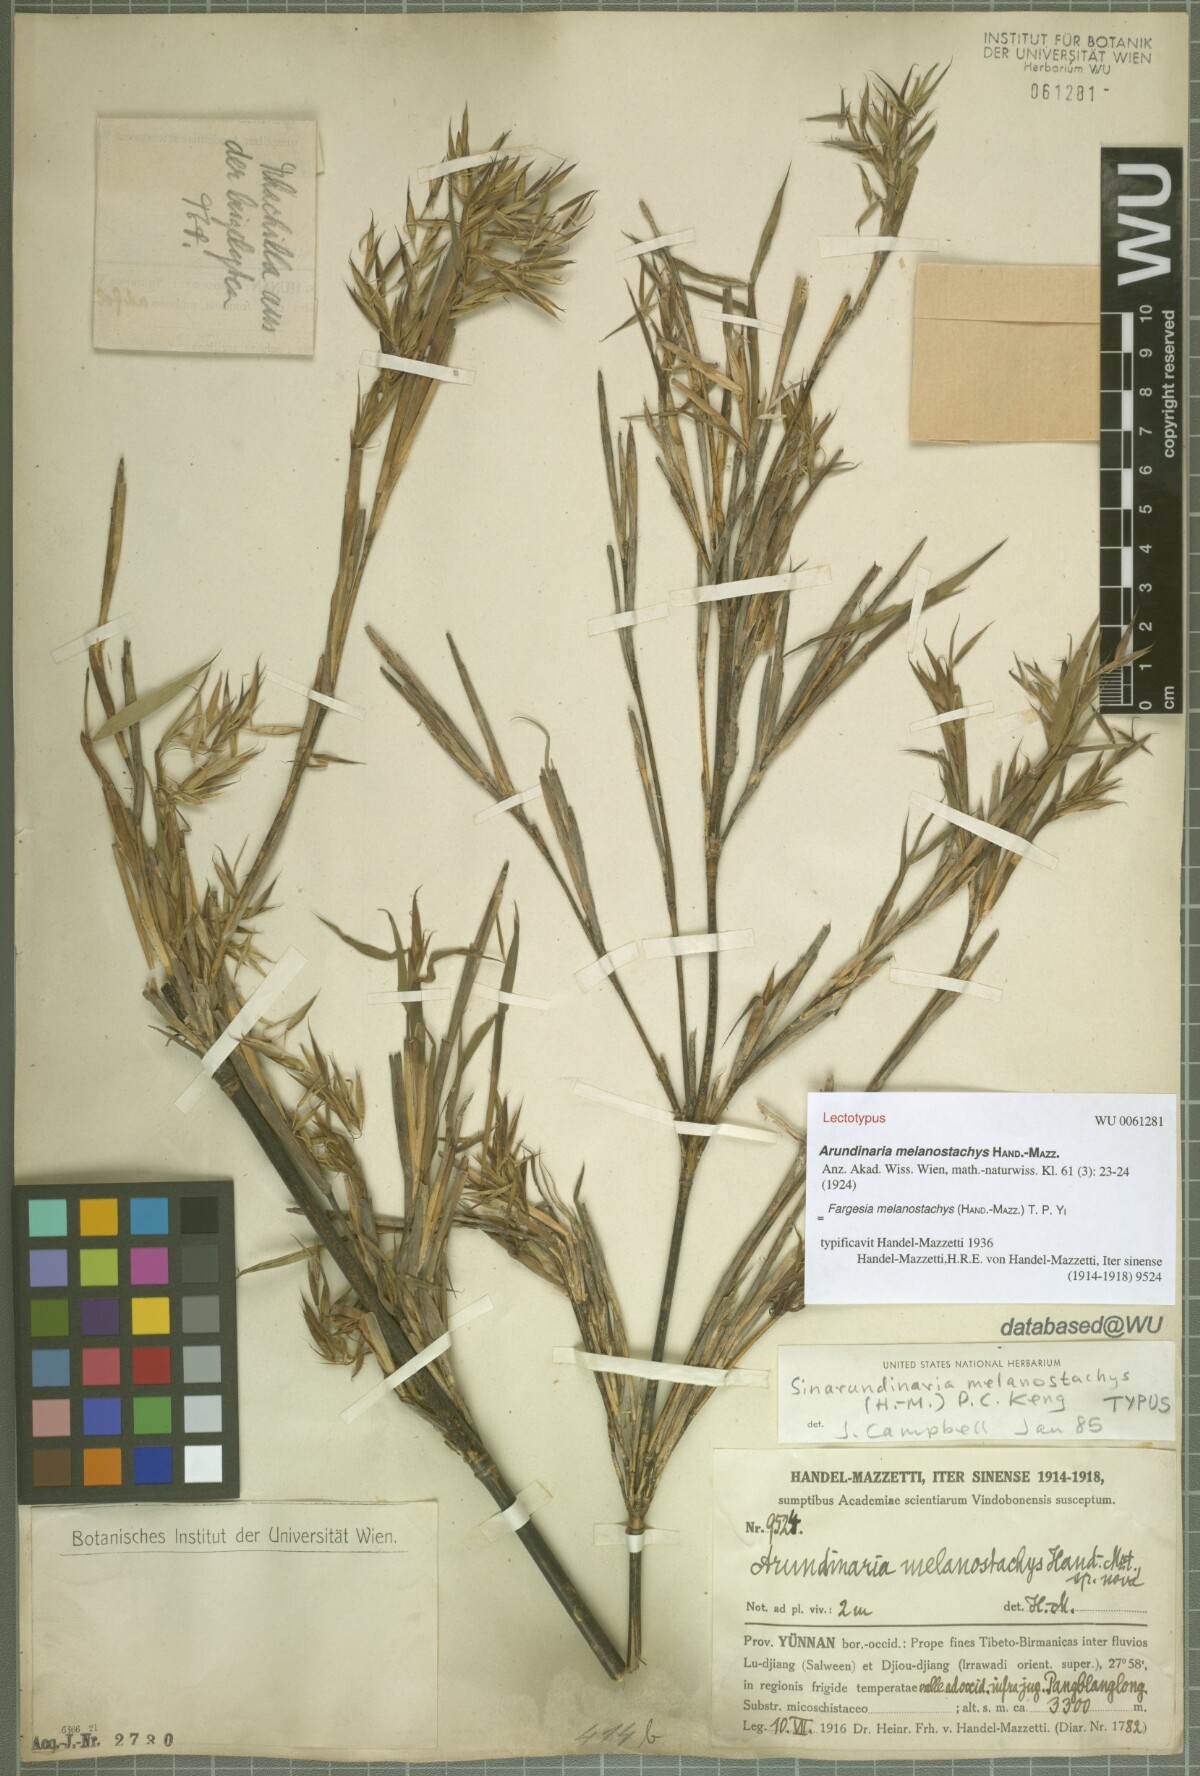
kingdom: Plantae
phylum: Tracheophyta
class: Liliopsida
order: Poales
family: Poaceae
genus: Fargesia
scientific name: Fargesia melanostachys
